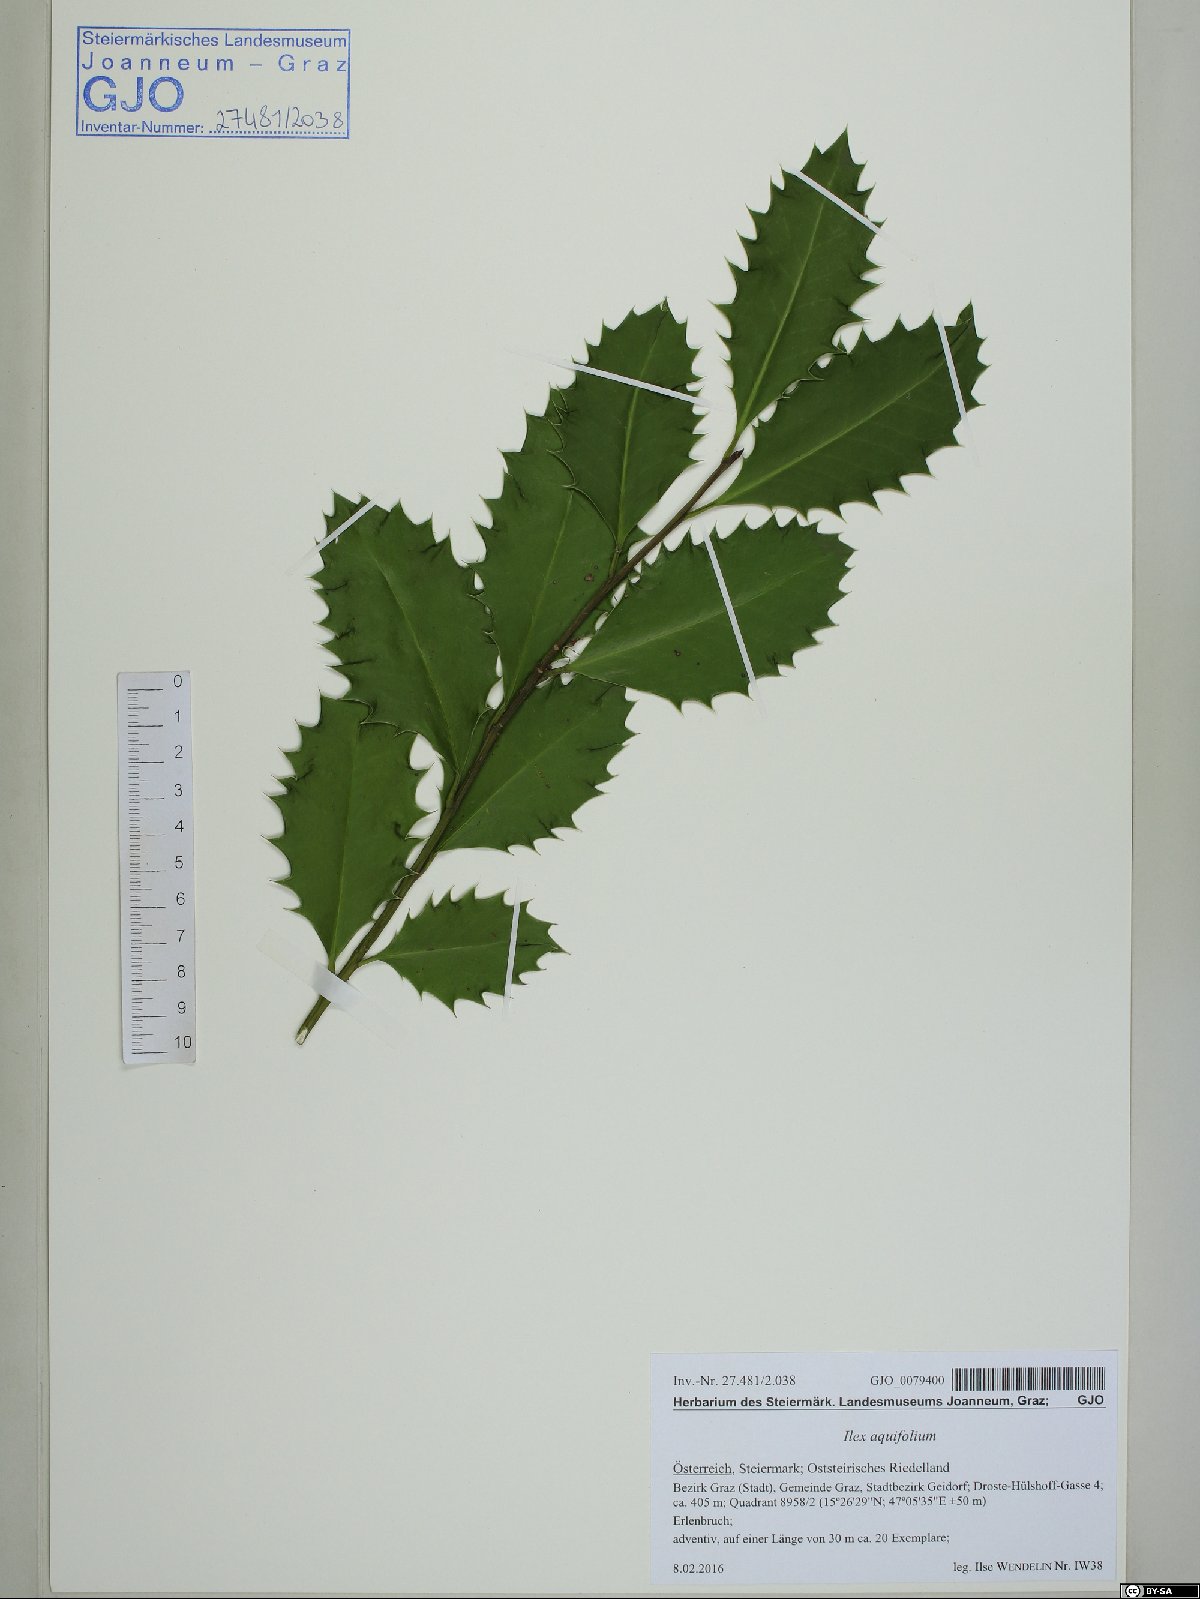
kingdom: Plantae
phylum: Tracheophyta
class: Magnoliopsida
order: Aquifoliales
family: Aquifoliaceae
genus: Ilex
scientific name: Ilex aquifolium
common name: English holly
